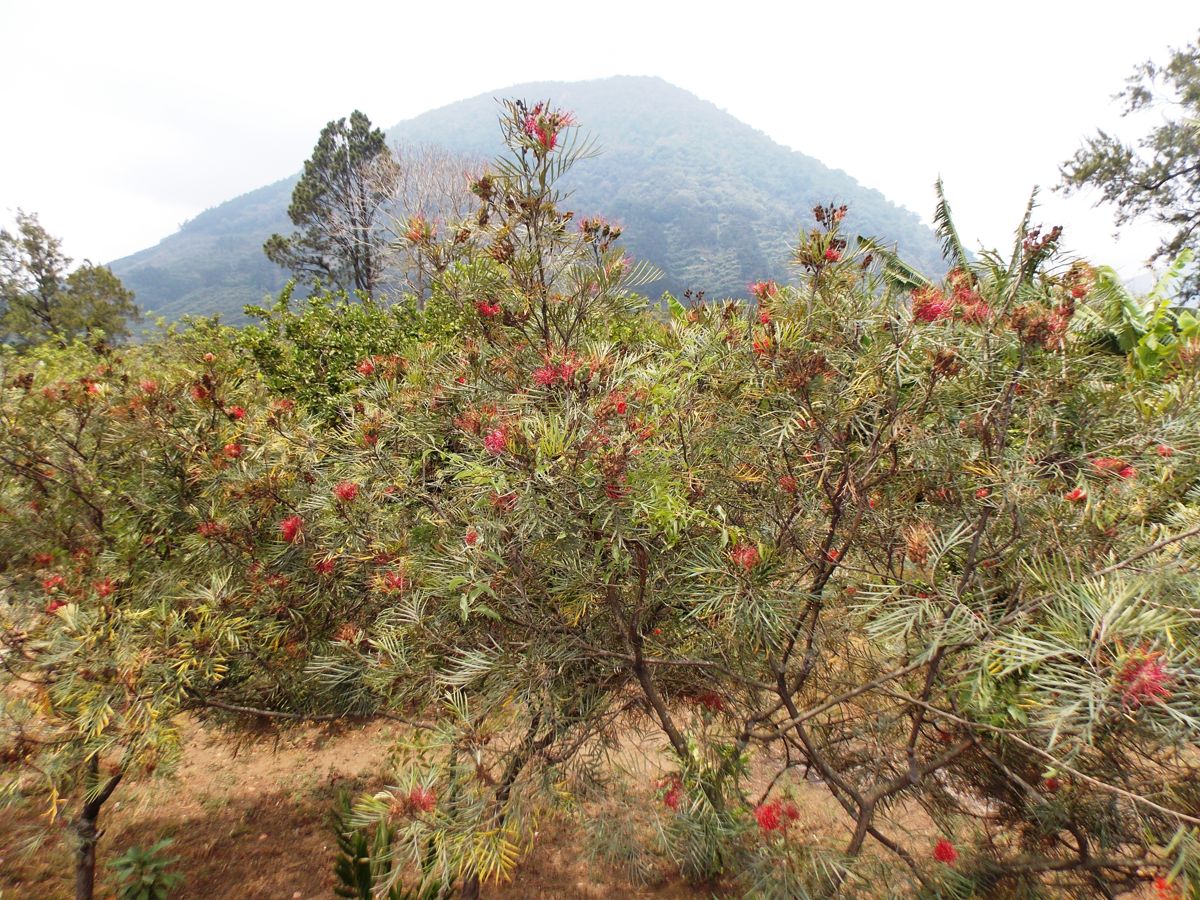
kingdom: Plantae
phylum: Tracheophyta
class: Magnoliopsida
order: Proteales
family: Proteaceae
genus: Grevillea
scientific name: Grevillea banksii
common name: Kahili flower
